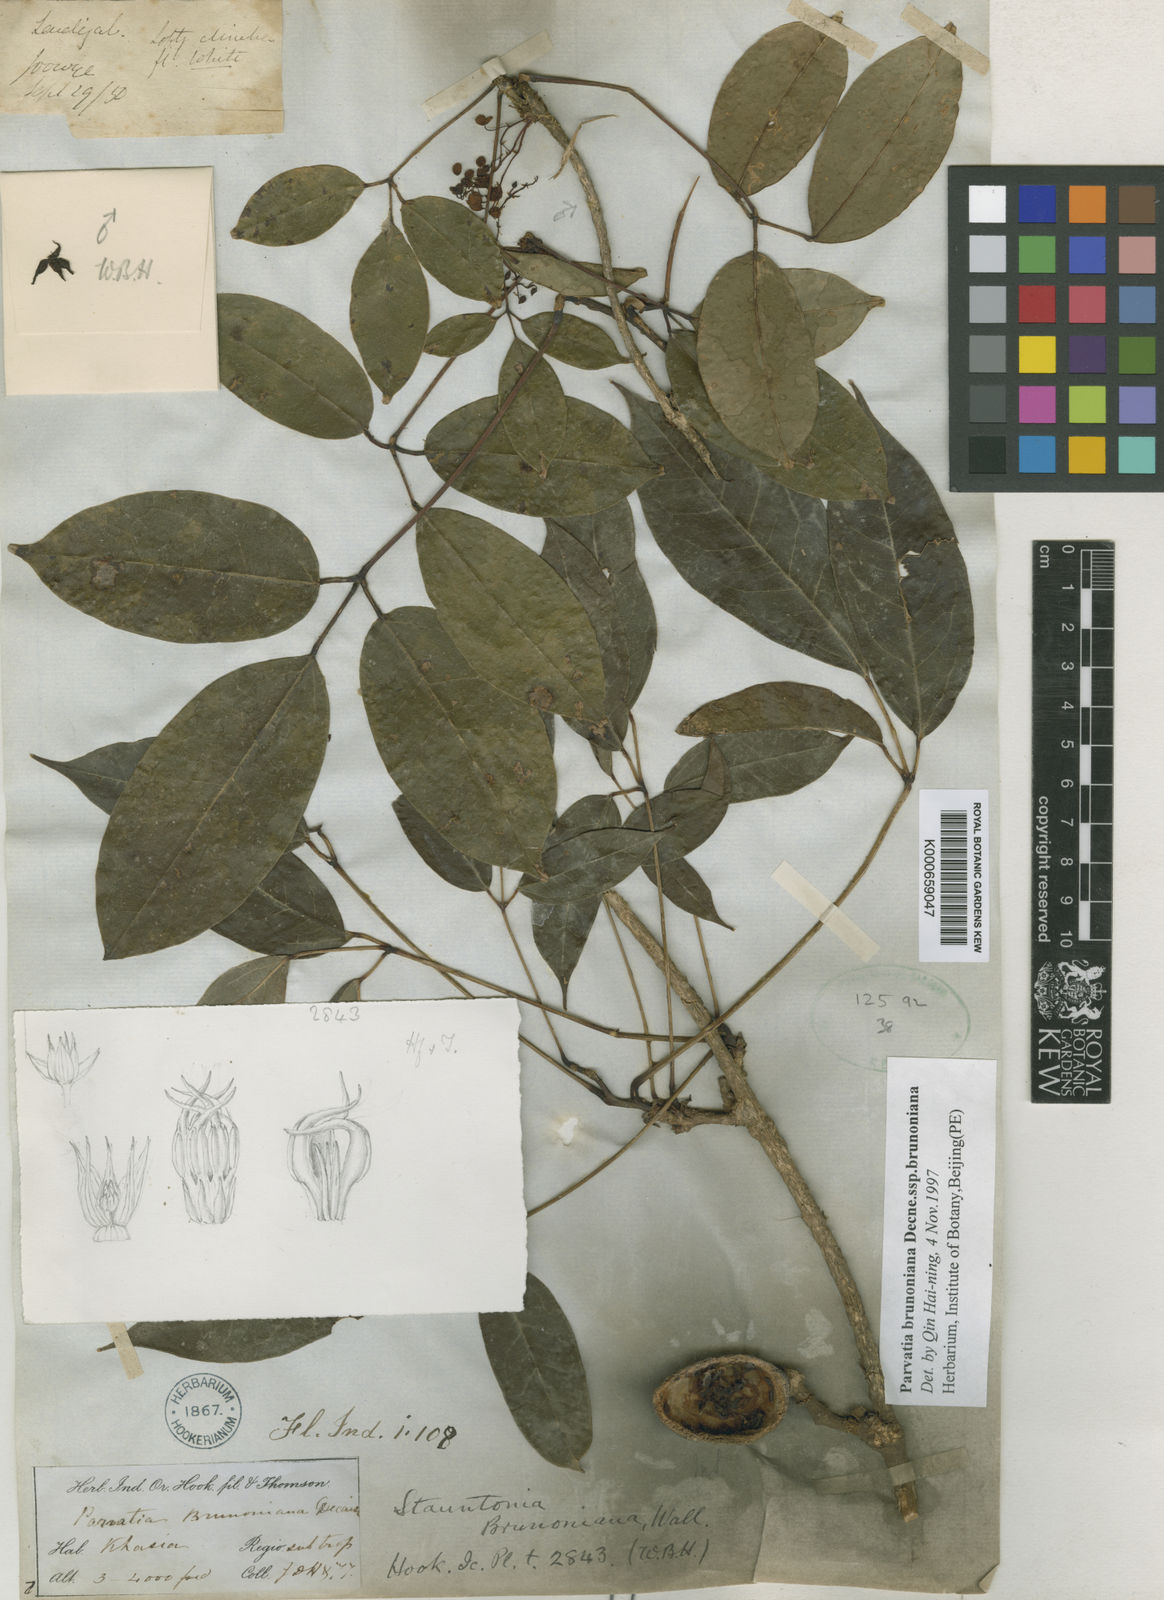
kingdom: Plantae
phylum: Tracheophyta
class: Magnoliopsida
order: Ranunculales
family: Lardizabalaceae
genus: Stauntonia
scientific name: Stauntonia brunoniana
